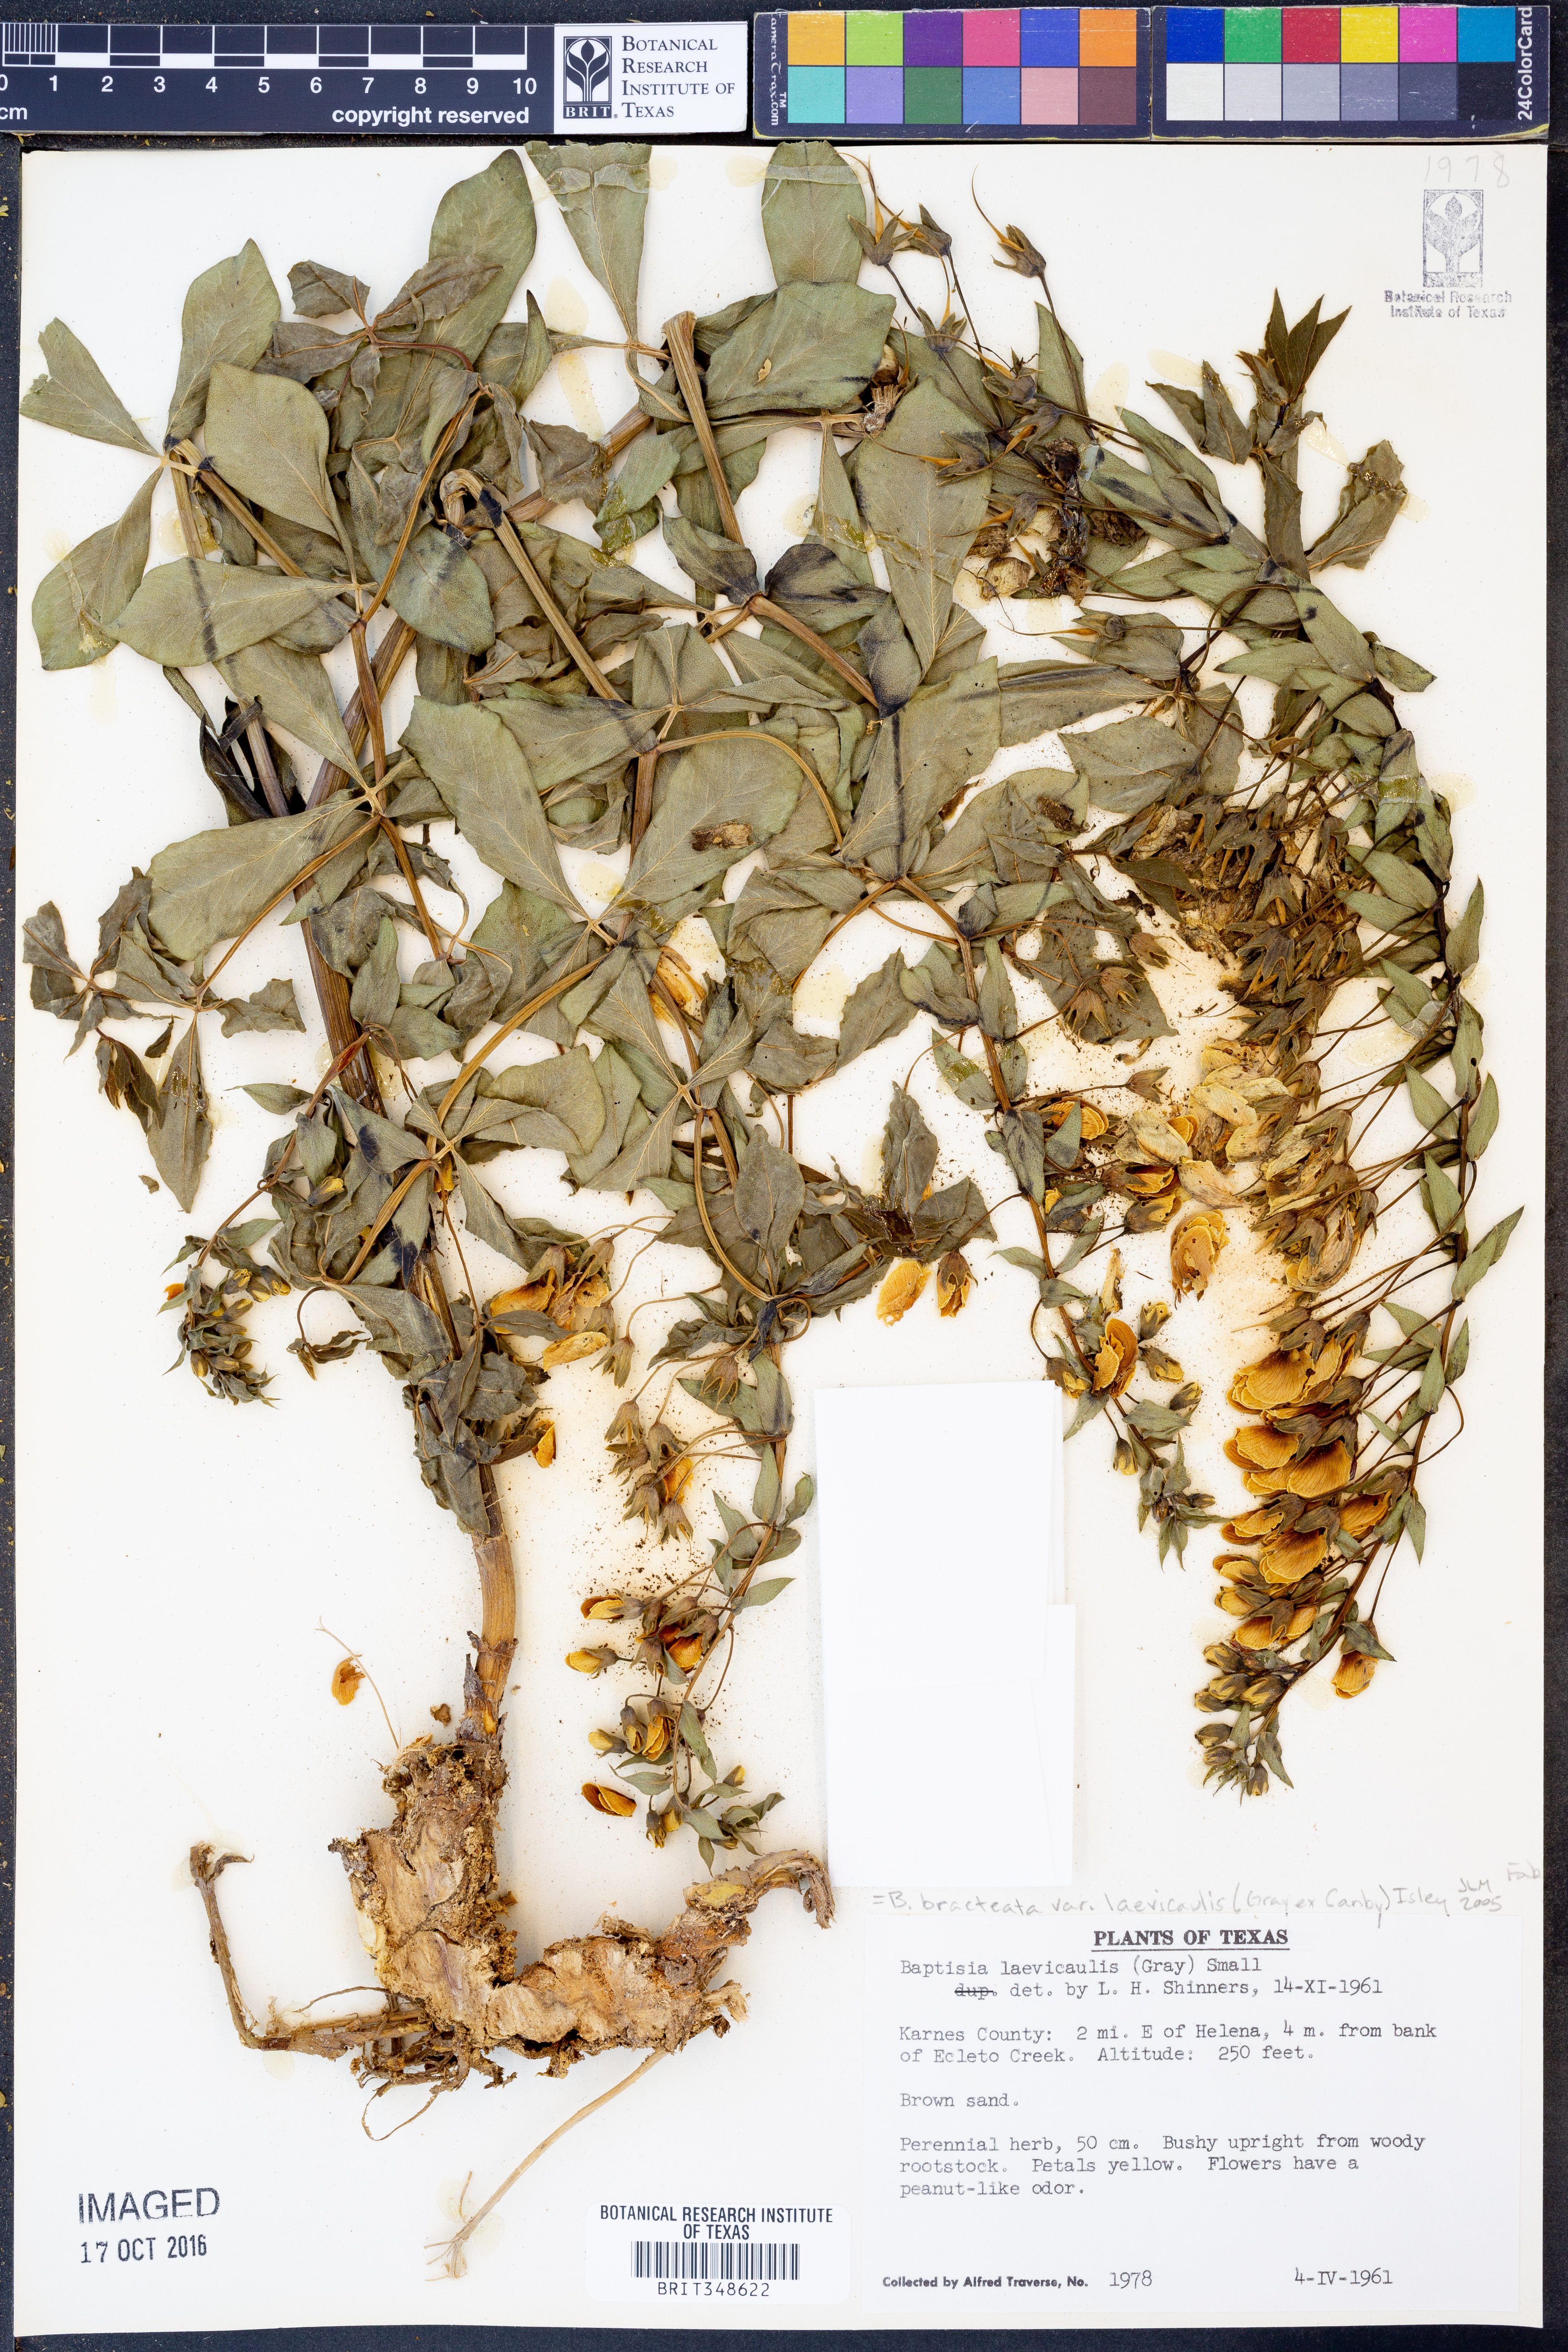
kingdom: Plantae
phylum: Tracheophyta
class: Magnoliopsida
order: Fabales
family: Fabaceae
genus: Baptisia
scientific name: Baptisia bracteata
